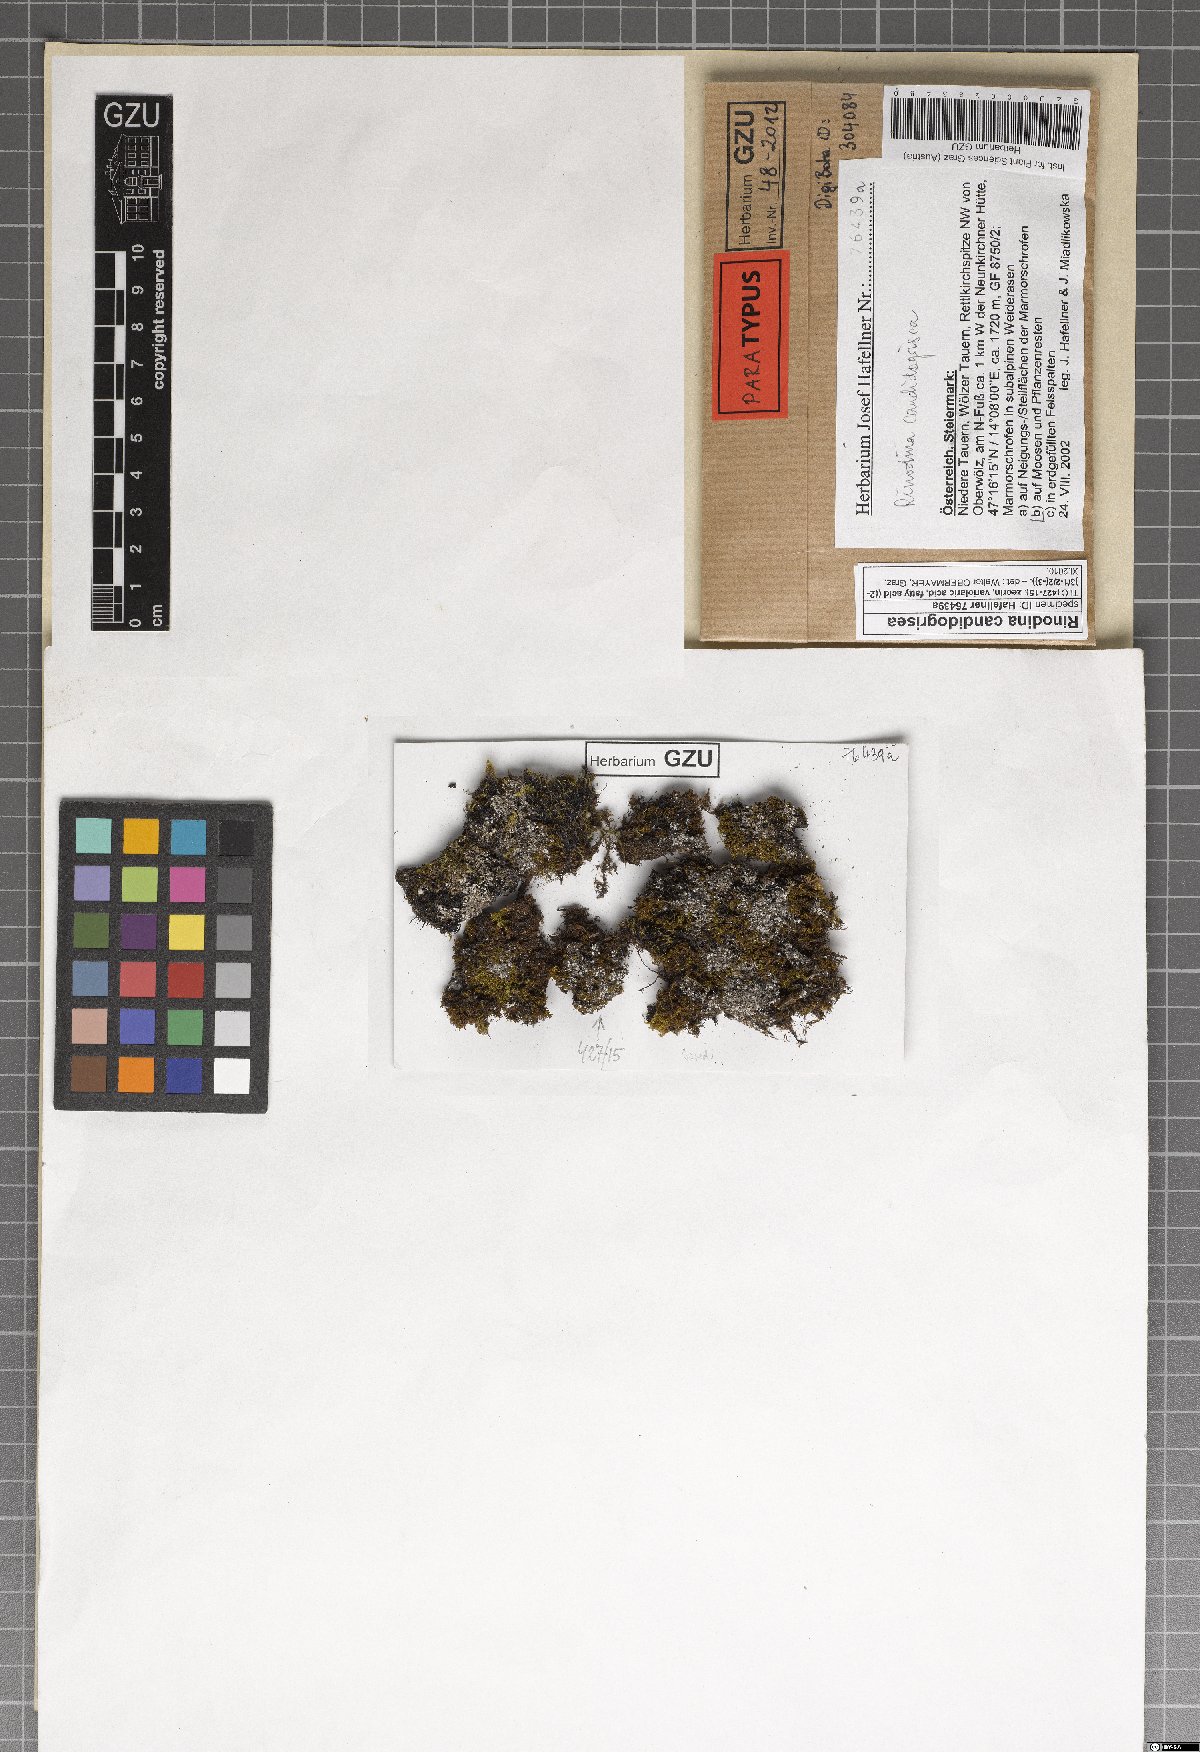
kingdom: Fungi
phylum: Ascomycota
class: Lecanoromycetes
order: Caliciales
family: Physciaceae
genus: Kudratovia
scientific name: Kudratovia candidogrisea
